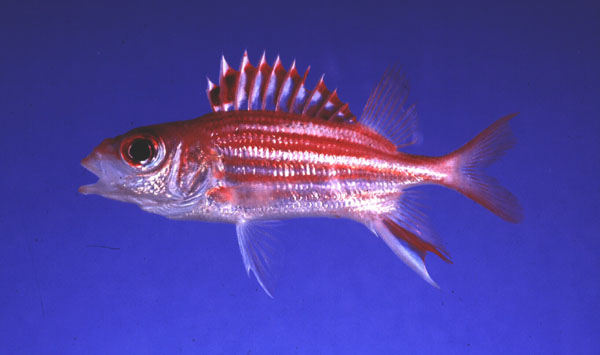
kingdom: Animalia
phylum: Chordata
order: Beryciformes
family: Holocentridae
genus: Sargocentron
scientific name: Sargocentron microstoma
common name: Fine-lined squirrelfish
